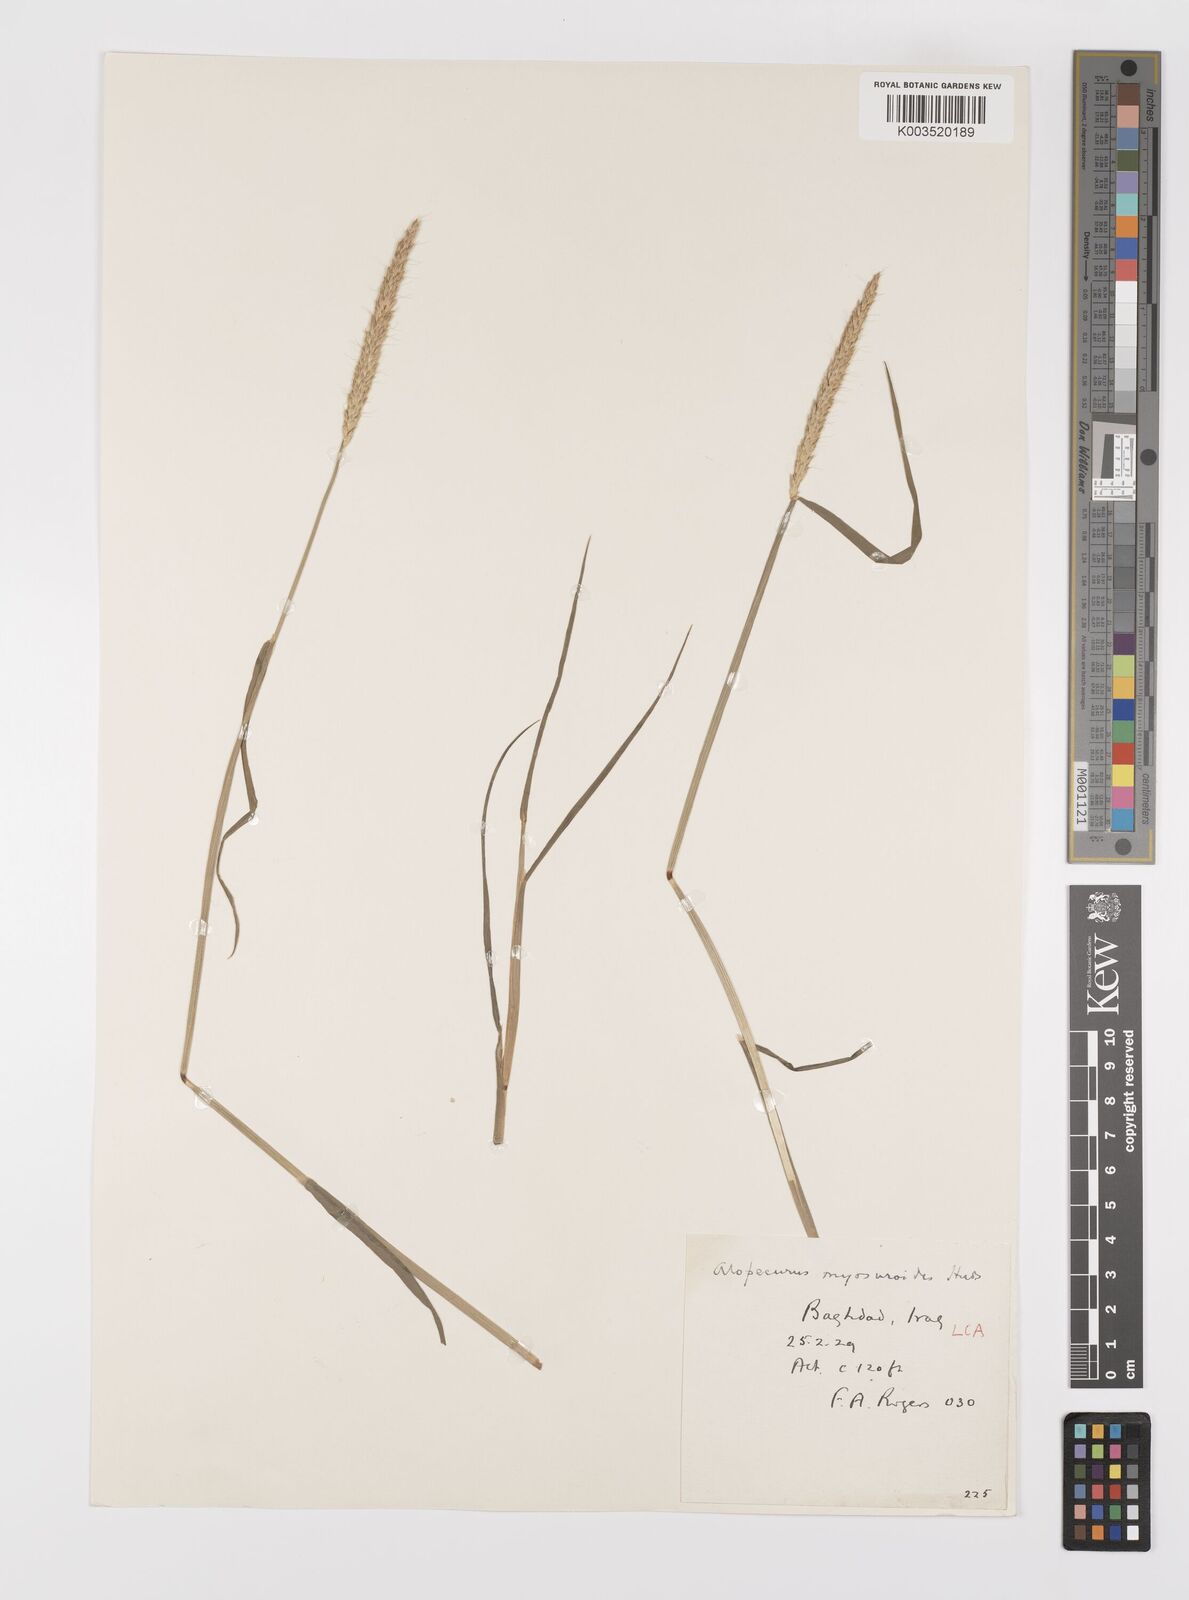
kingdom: Plantae
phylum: Tracheophyta
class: Liliopsida
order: Poales
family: Poaceae
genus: Alopecurus
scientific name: Alopecurus myosuroides
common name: Black-grass
